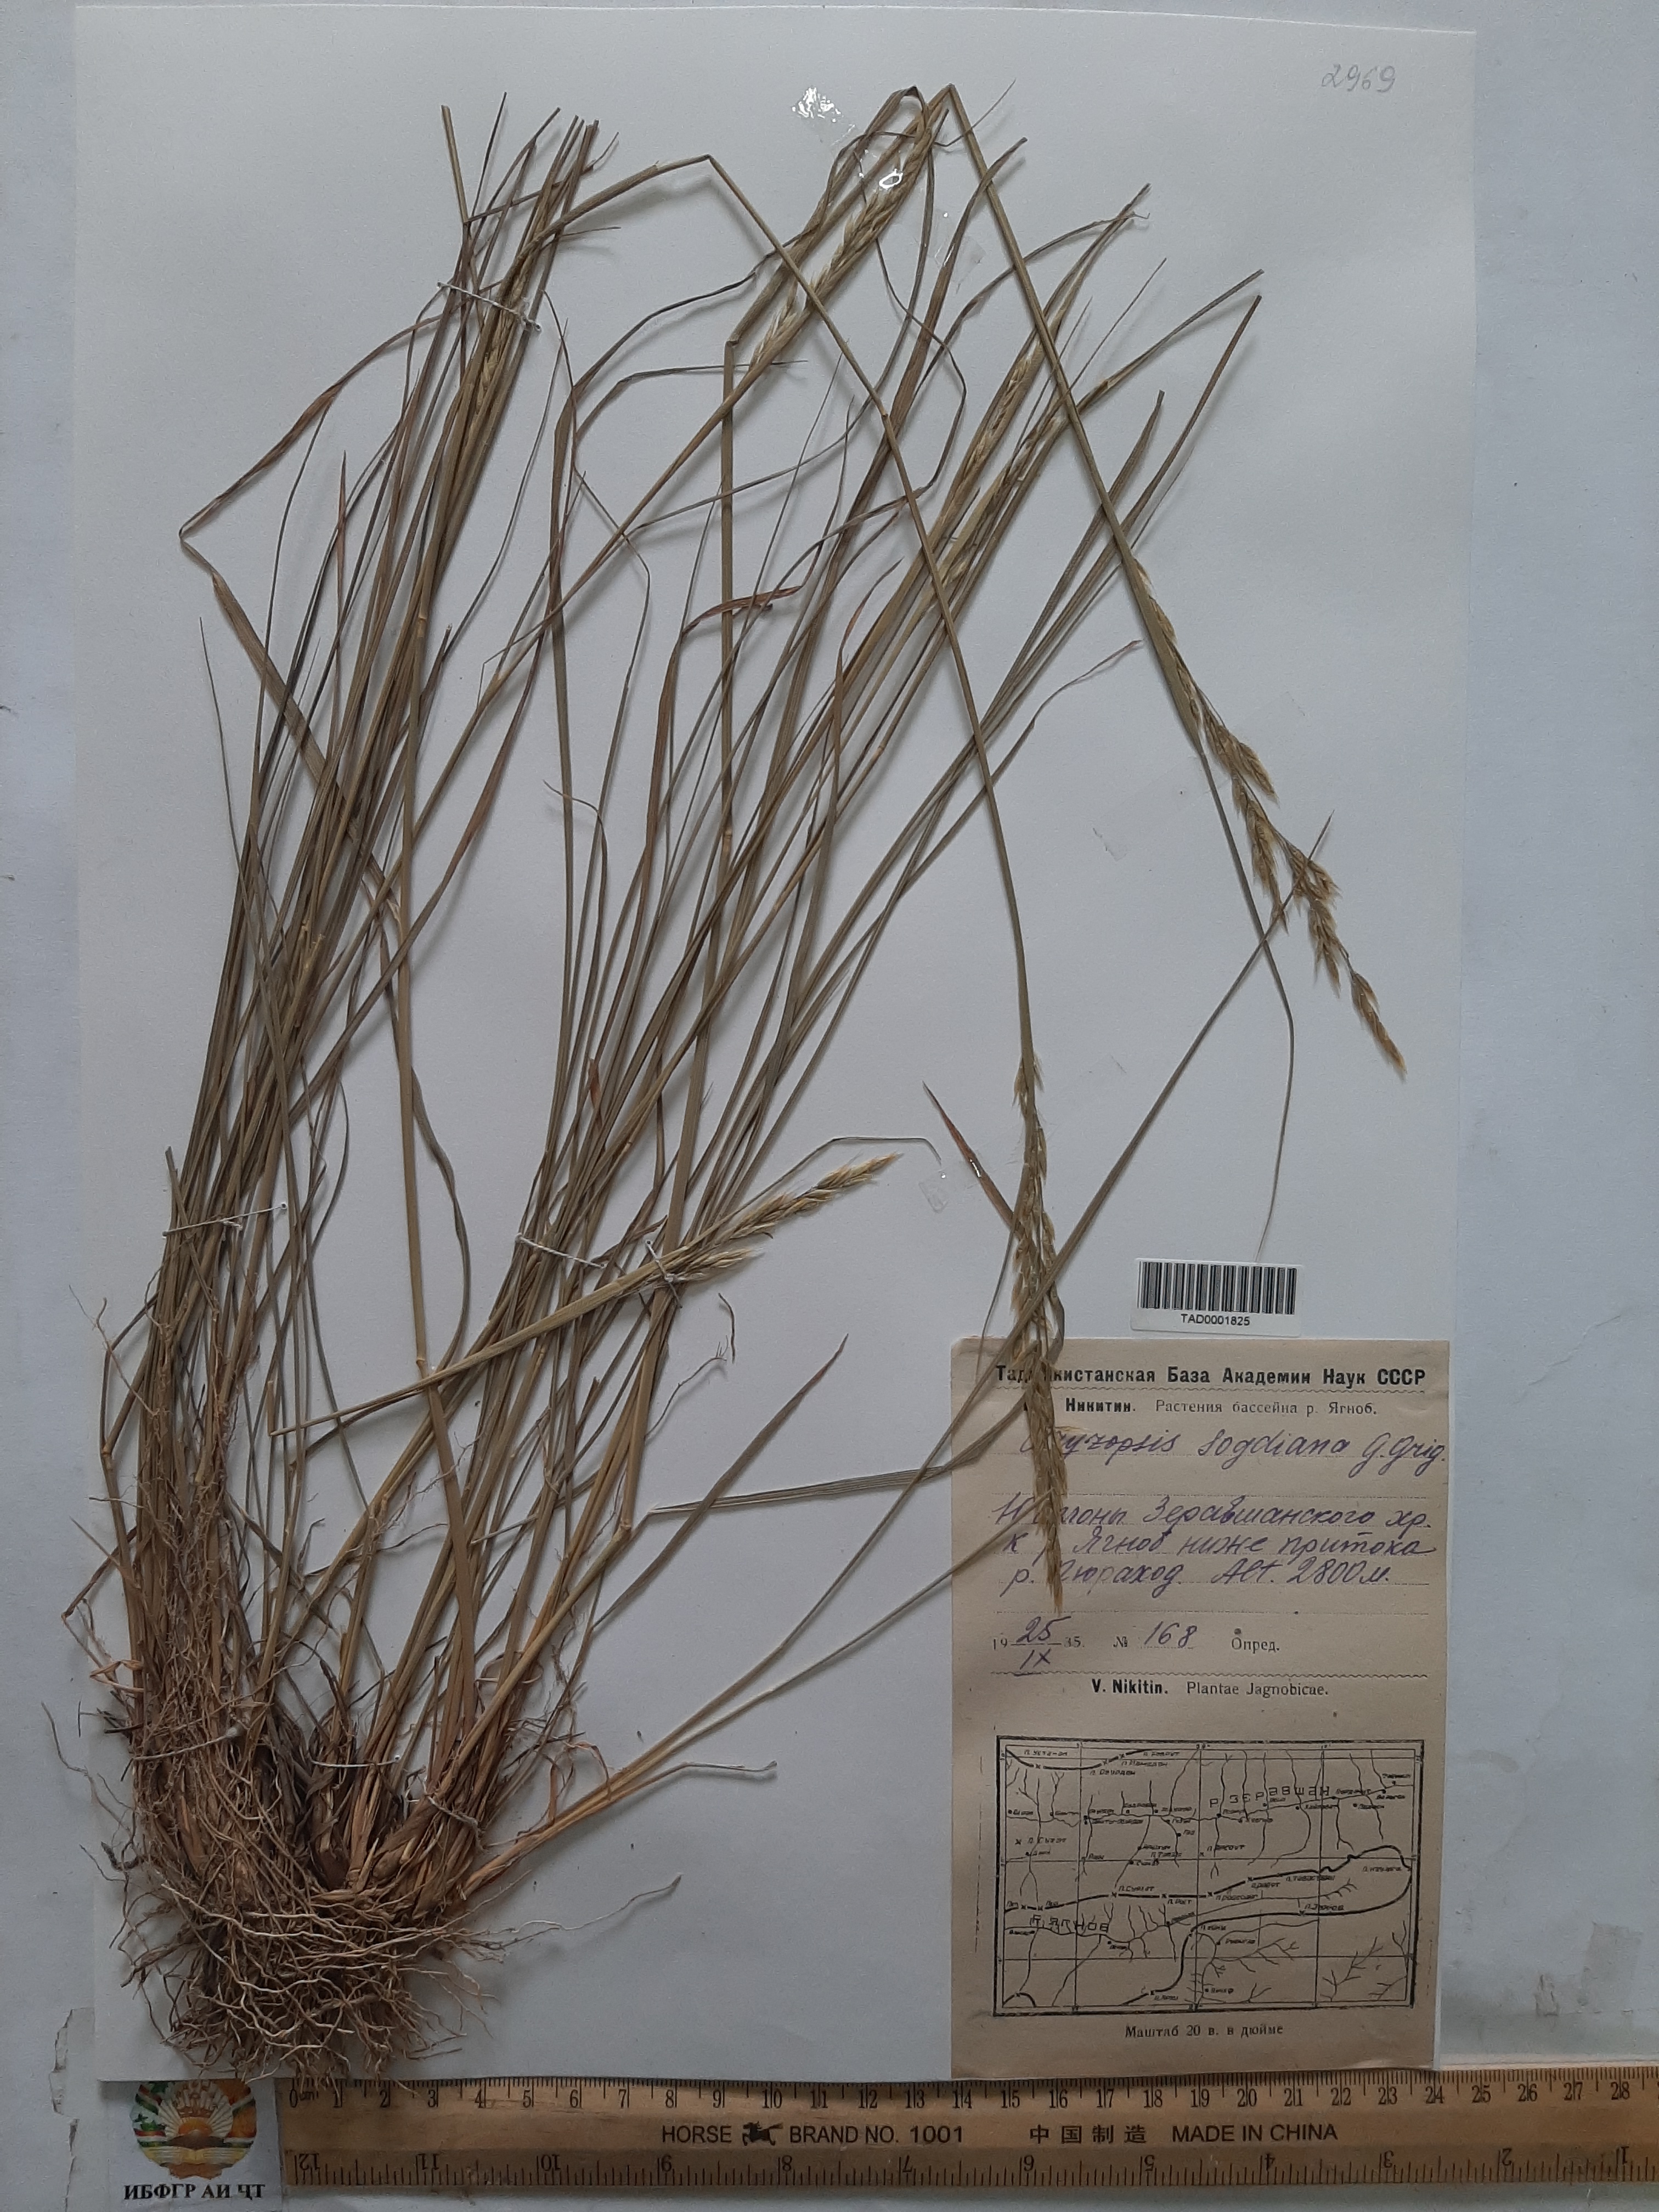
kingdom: Plantae
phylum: Tracheophyta
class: Liliopsida
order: Poales
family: Poaceae
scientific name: Poaceae
